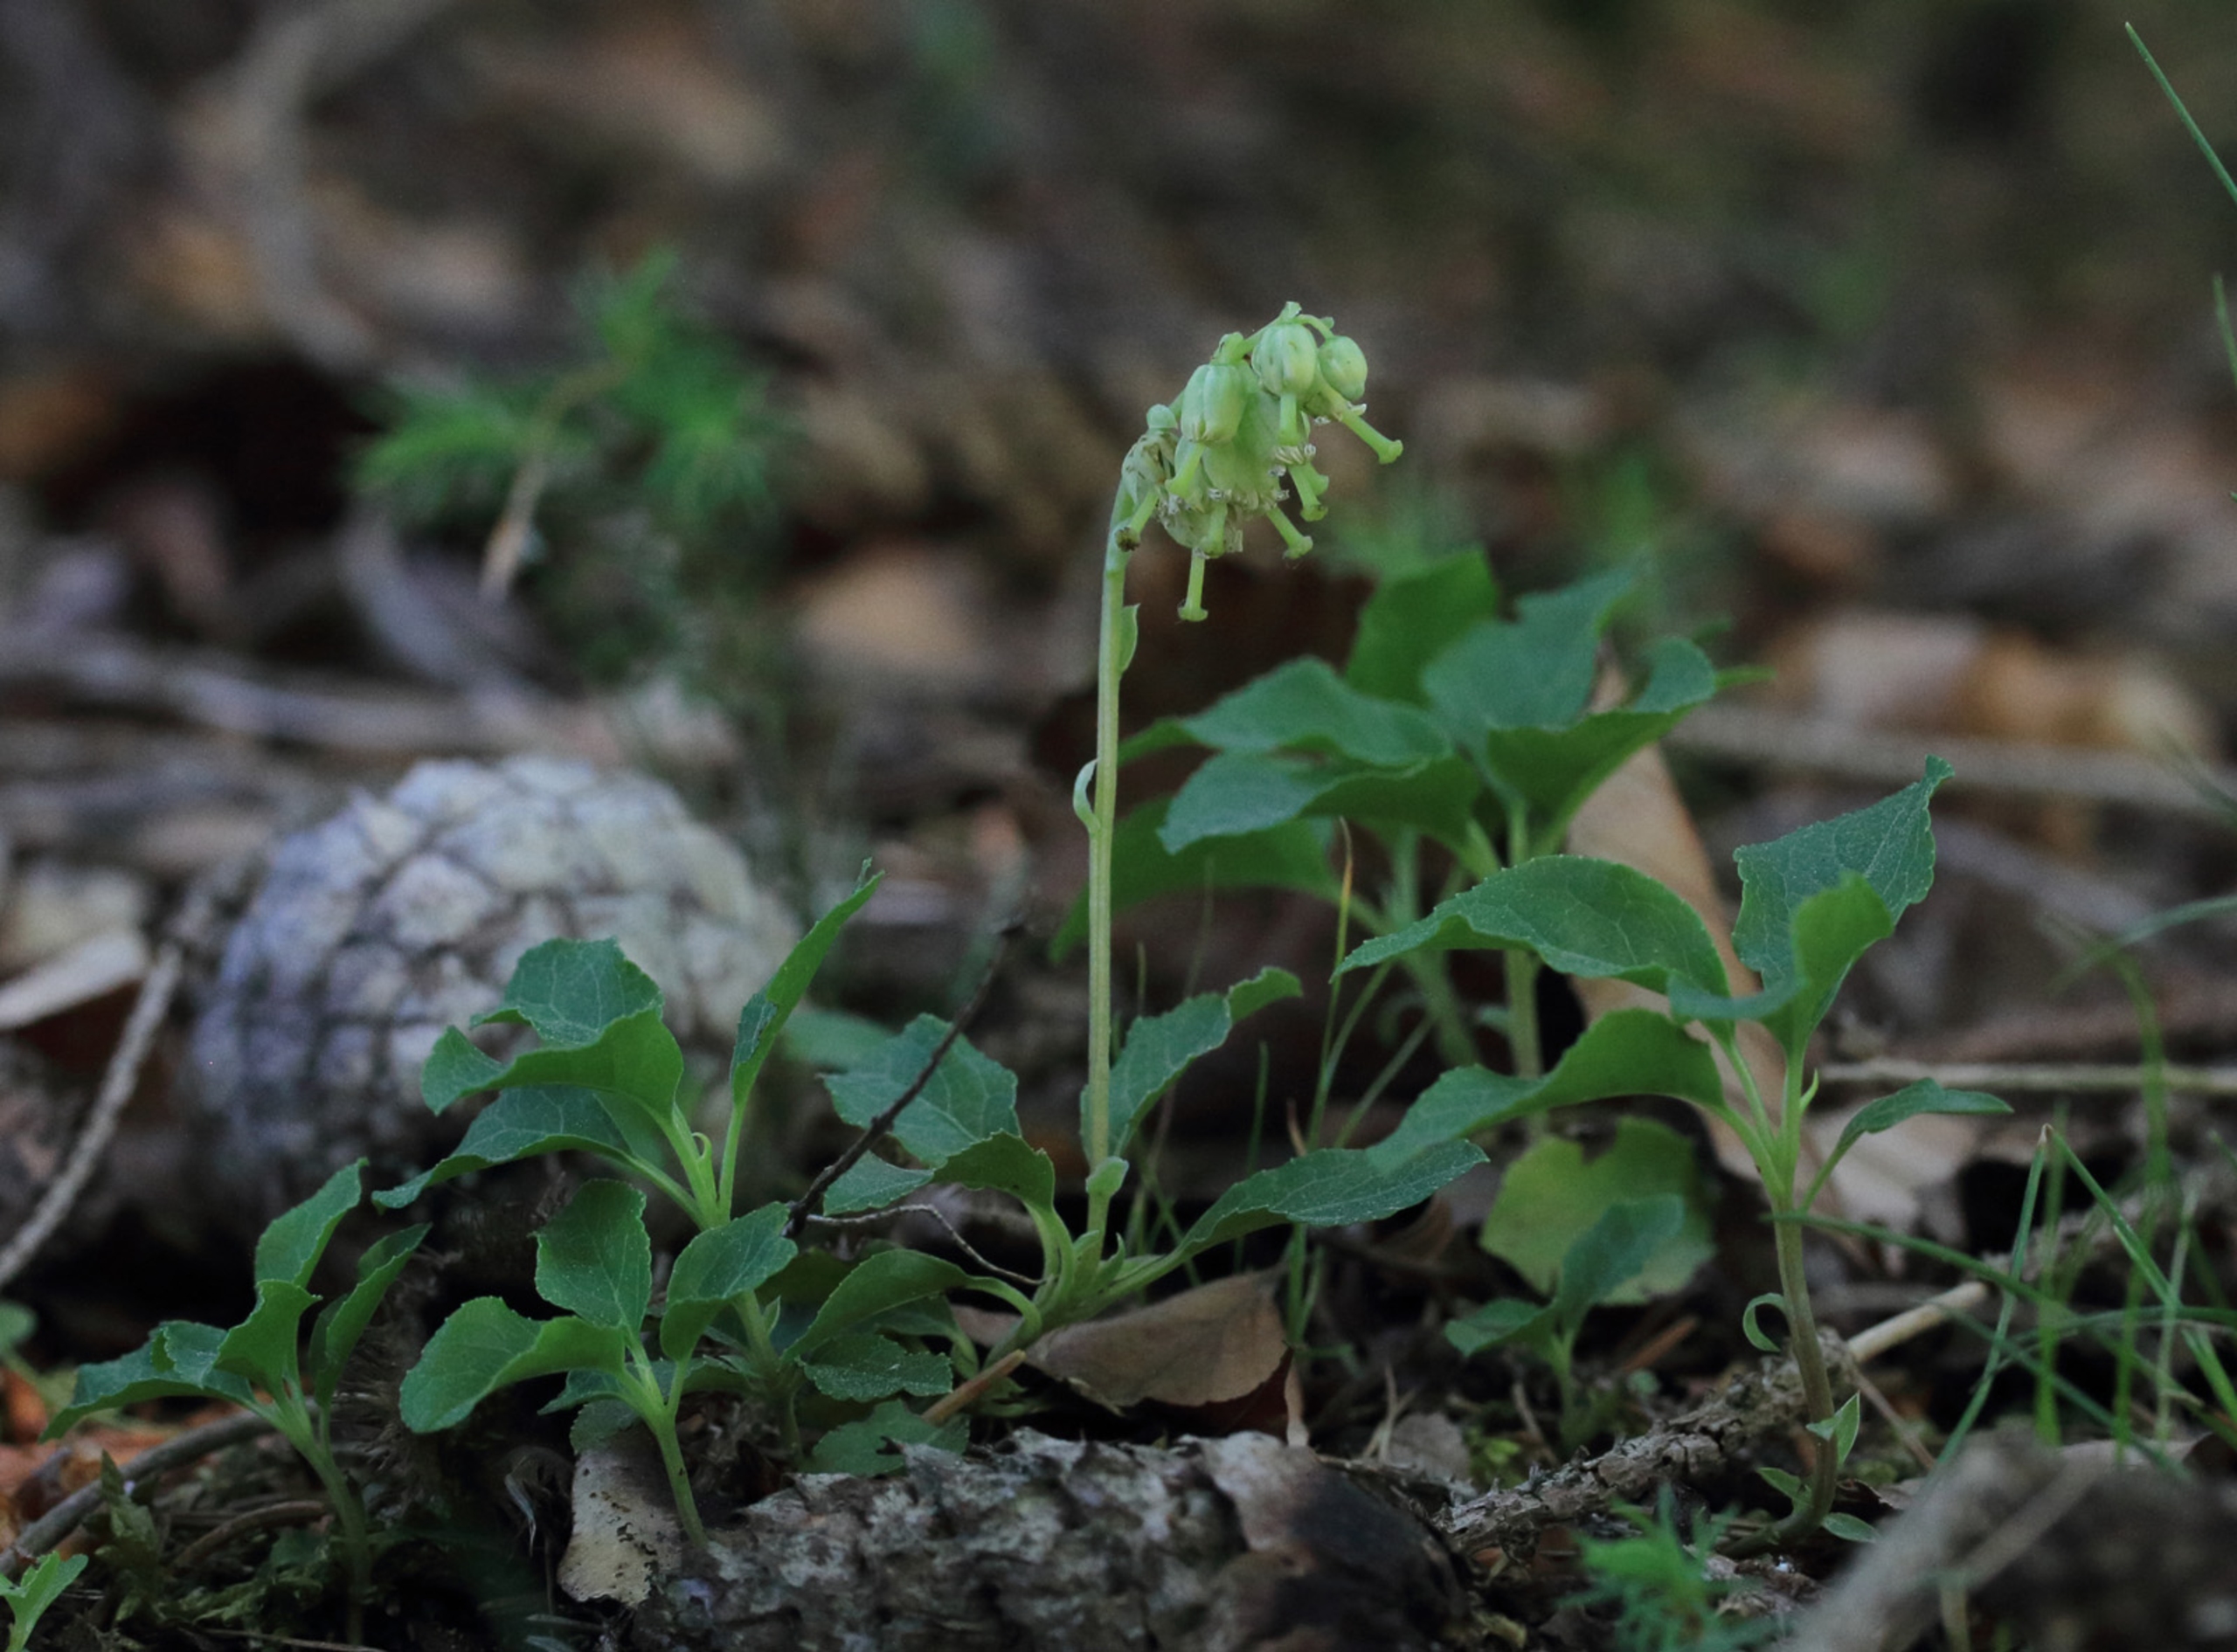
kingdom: Plantae
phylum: Tracheophyta
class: Magnoliopsida
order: Ericales
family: Ericaceae
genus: Orthilia
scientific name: Orthilia secunda
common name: Ensidig vintergrøn
